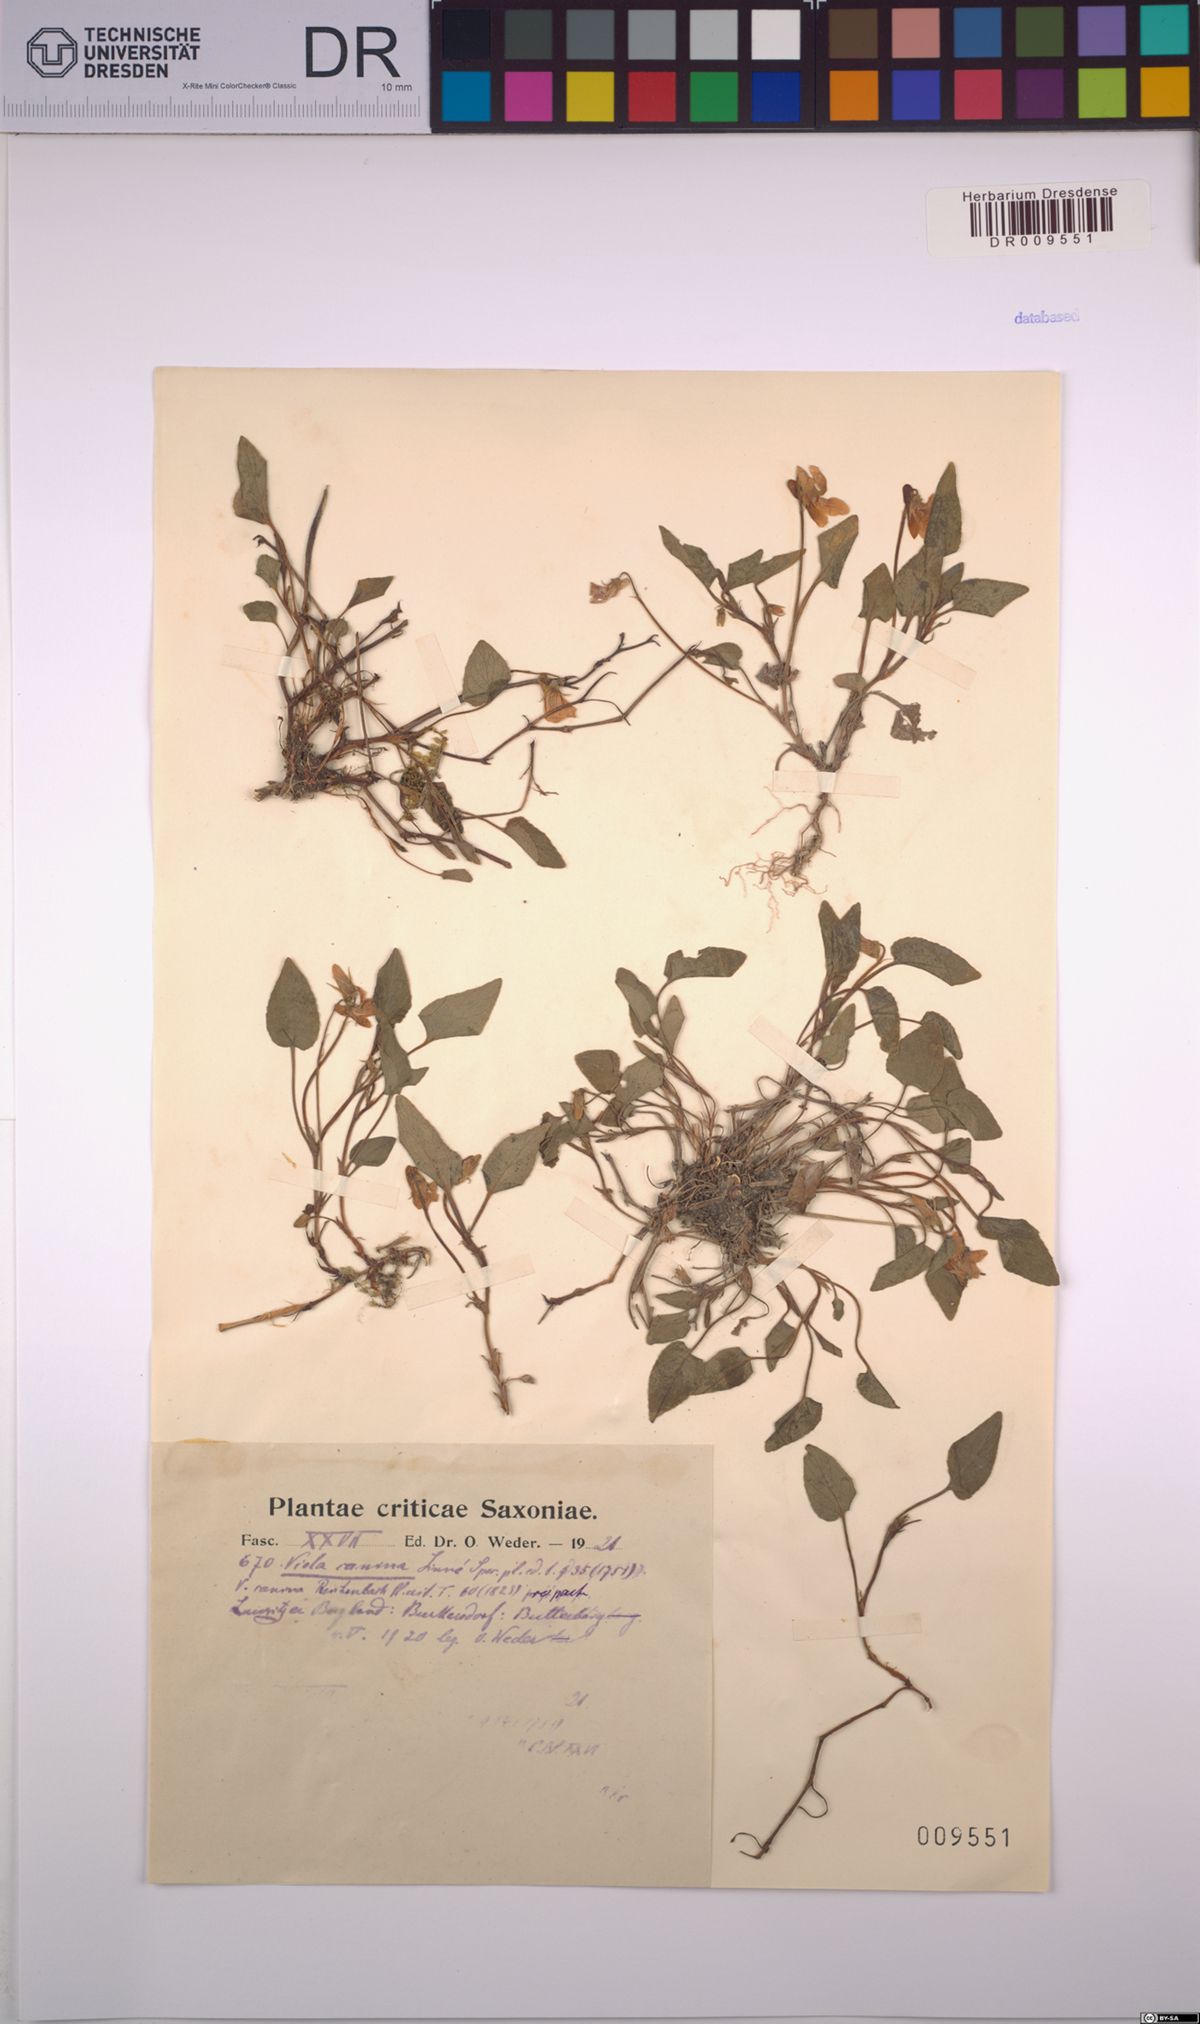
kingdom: Plantae
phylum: Tracheophyta
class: Magnoliopsida
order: Malpighiales
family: Violaceae
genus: Viola
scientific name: Viola canina
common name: Heath dog-violet
